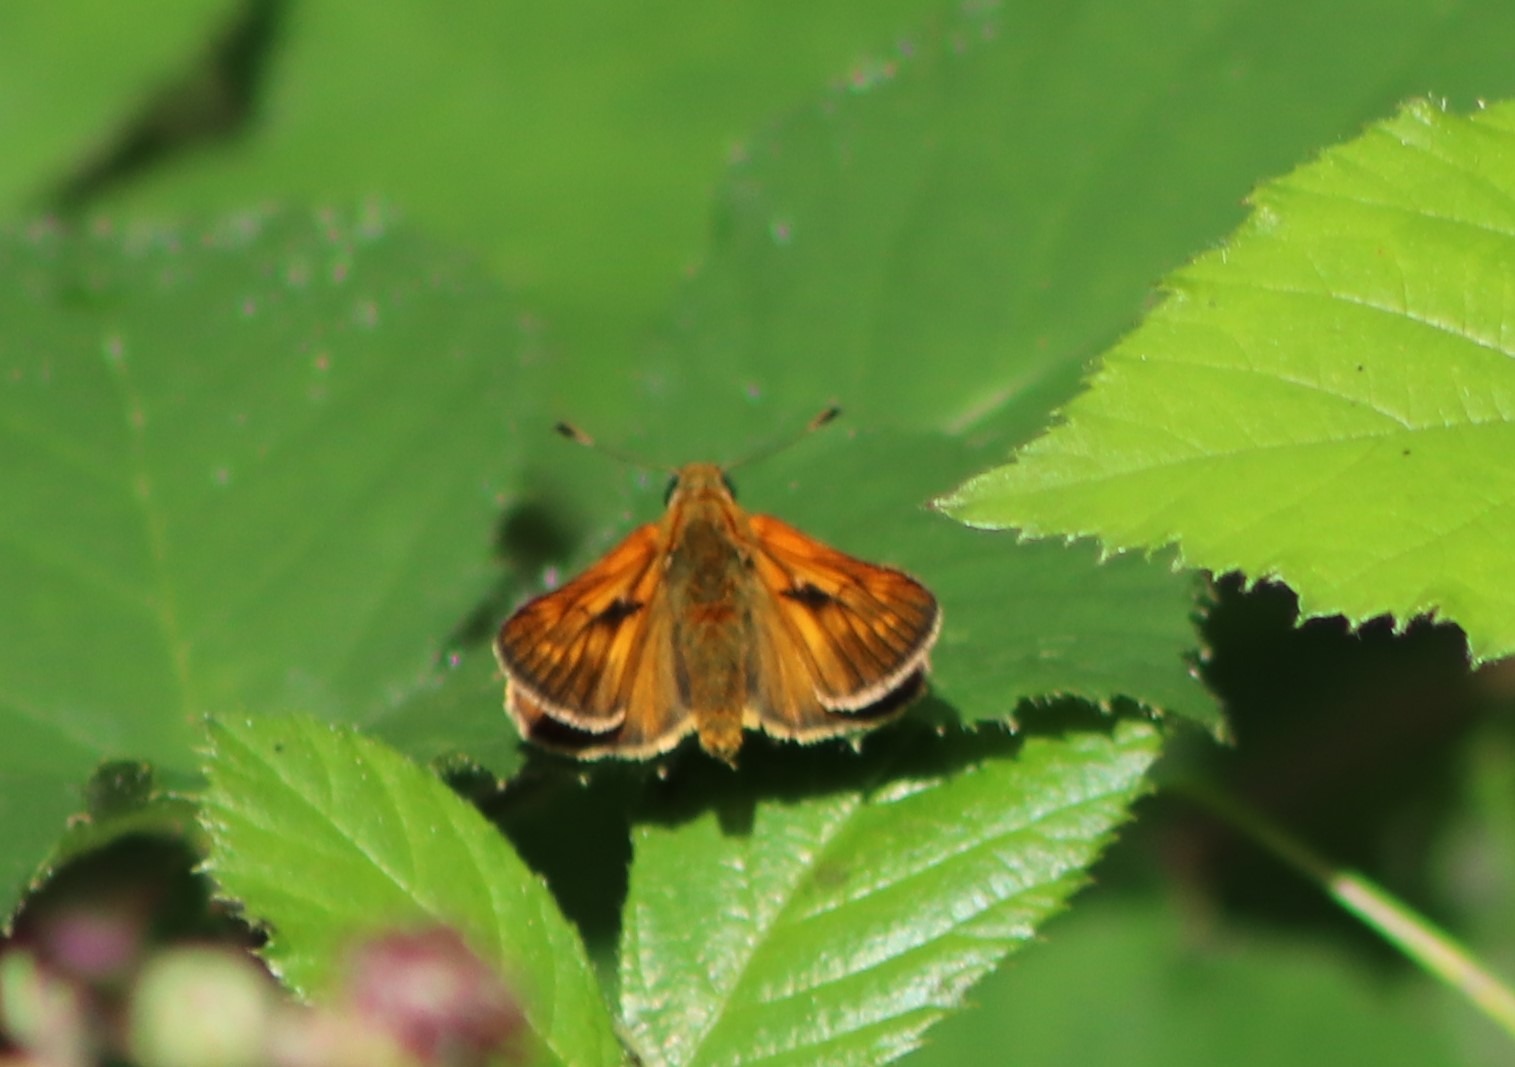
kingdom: Animalia
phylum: Arthropoda
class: Insecta
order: Lepidoptera
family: Hesperiidae
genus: Ochlodes
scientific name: Ochlodes venata
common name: Stor bredpande
